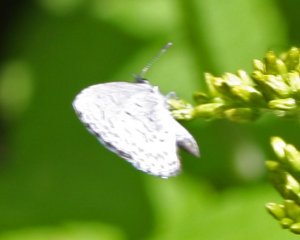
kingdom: Animalia
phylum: Arthropoda
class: Insecta
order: Lepidoptera
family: Lycaenidae
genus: Cyaniris
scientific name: Cyaniris neglecta
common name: Summer Azure
